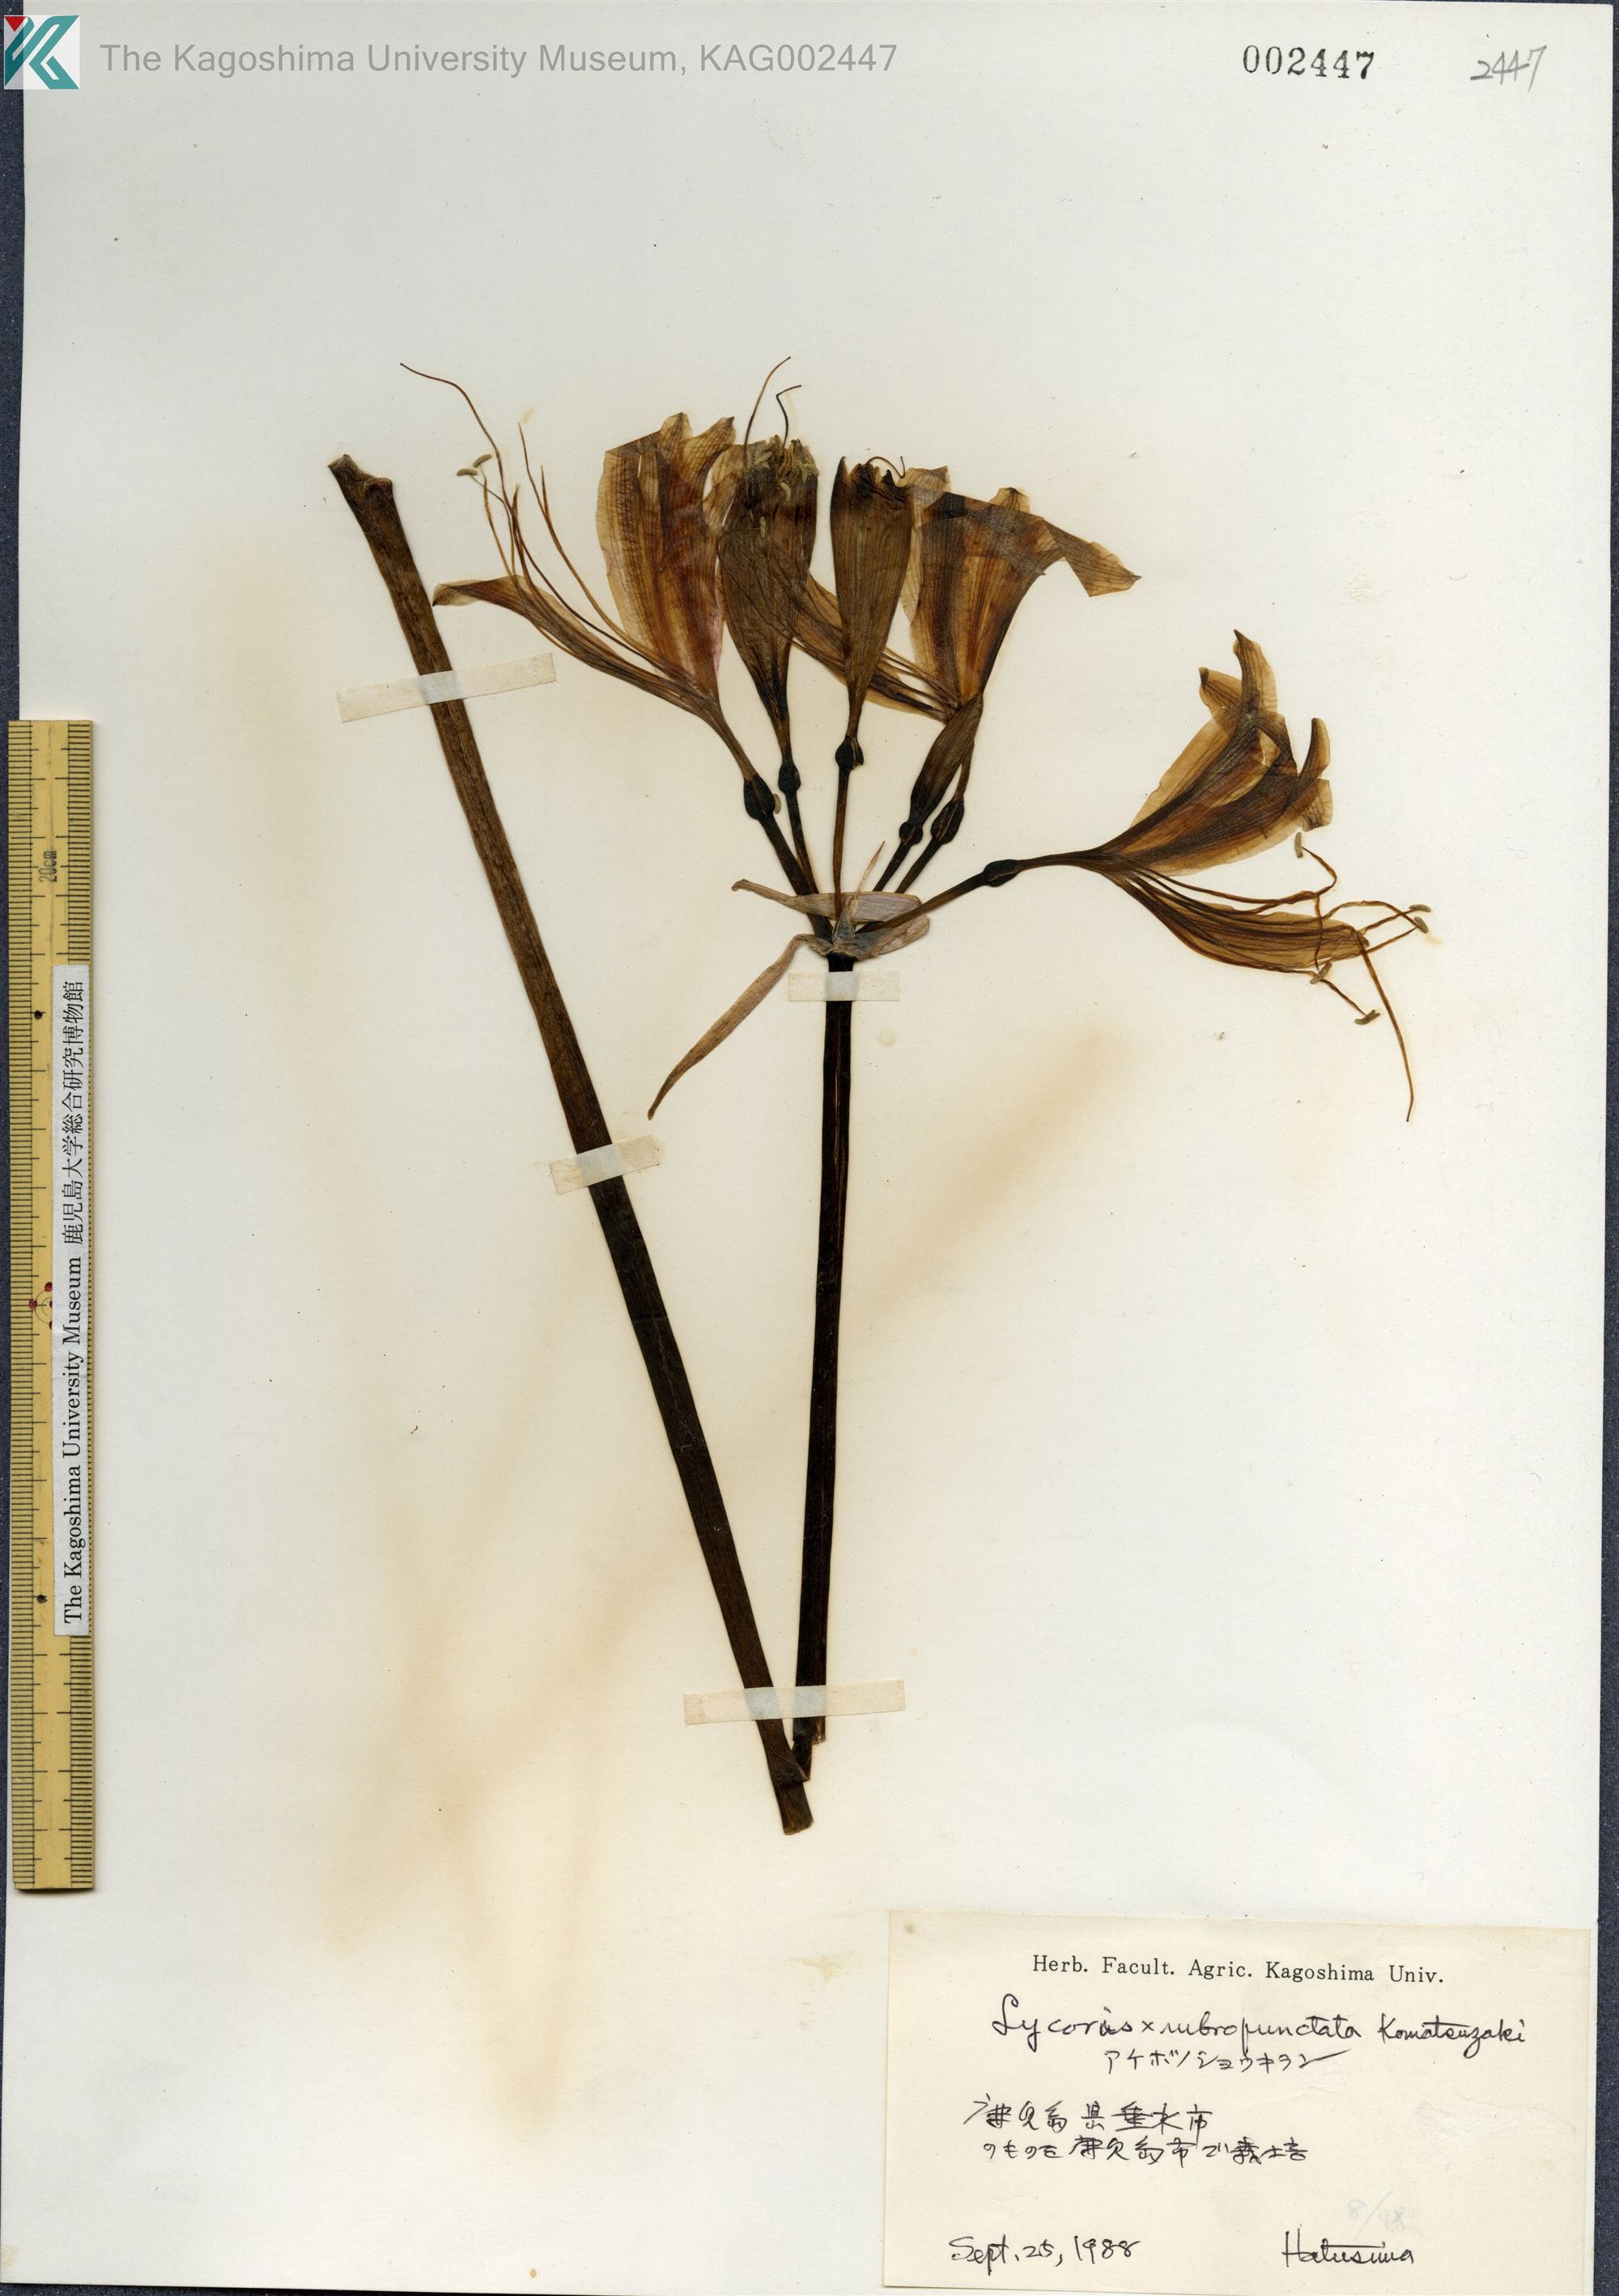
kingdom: Plantae
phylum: Tracheophyta
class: Liliopsida
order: Asparagales
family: Amaryllidaceae
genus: Lycoris
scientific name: Lycoris albiflora
